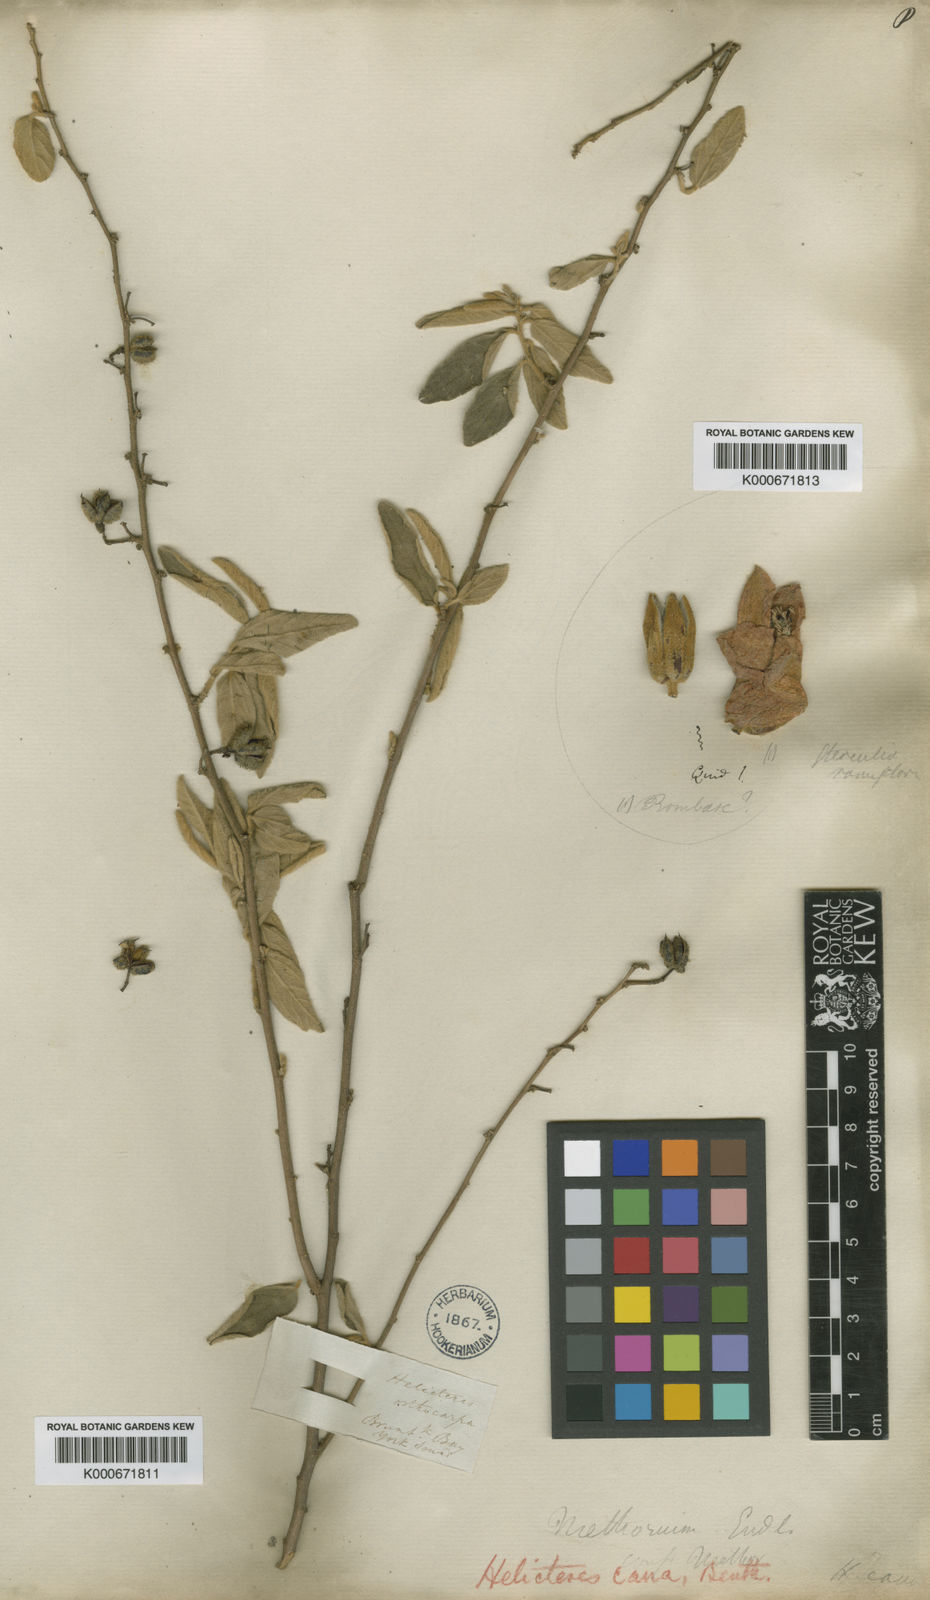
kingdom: Plantae
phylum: Tracheophyta
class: Magnoliopsida
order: Malvales
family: Malvaceae
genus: Helicteres
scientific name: Helicteres cana
